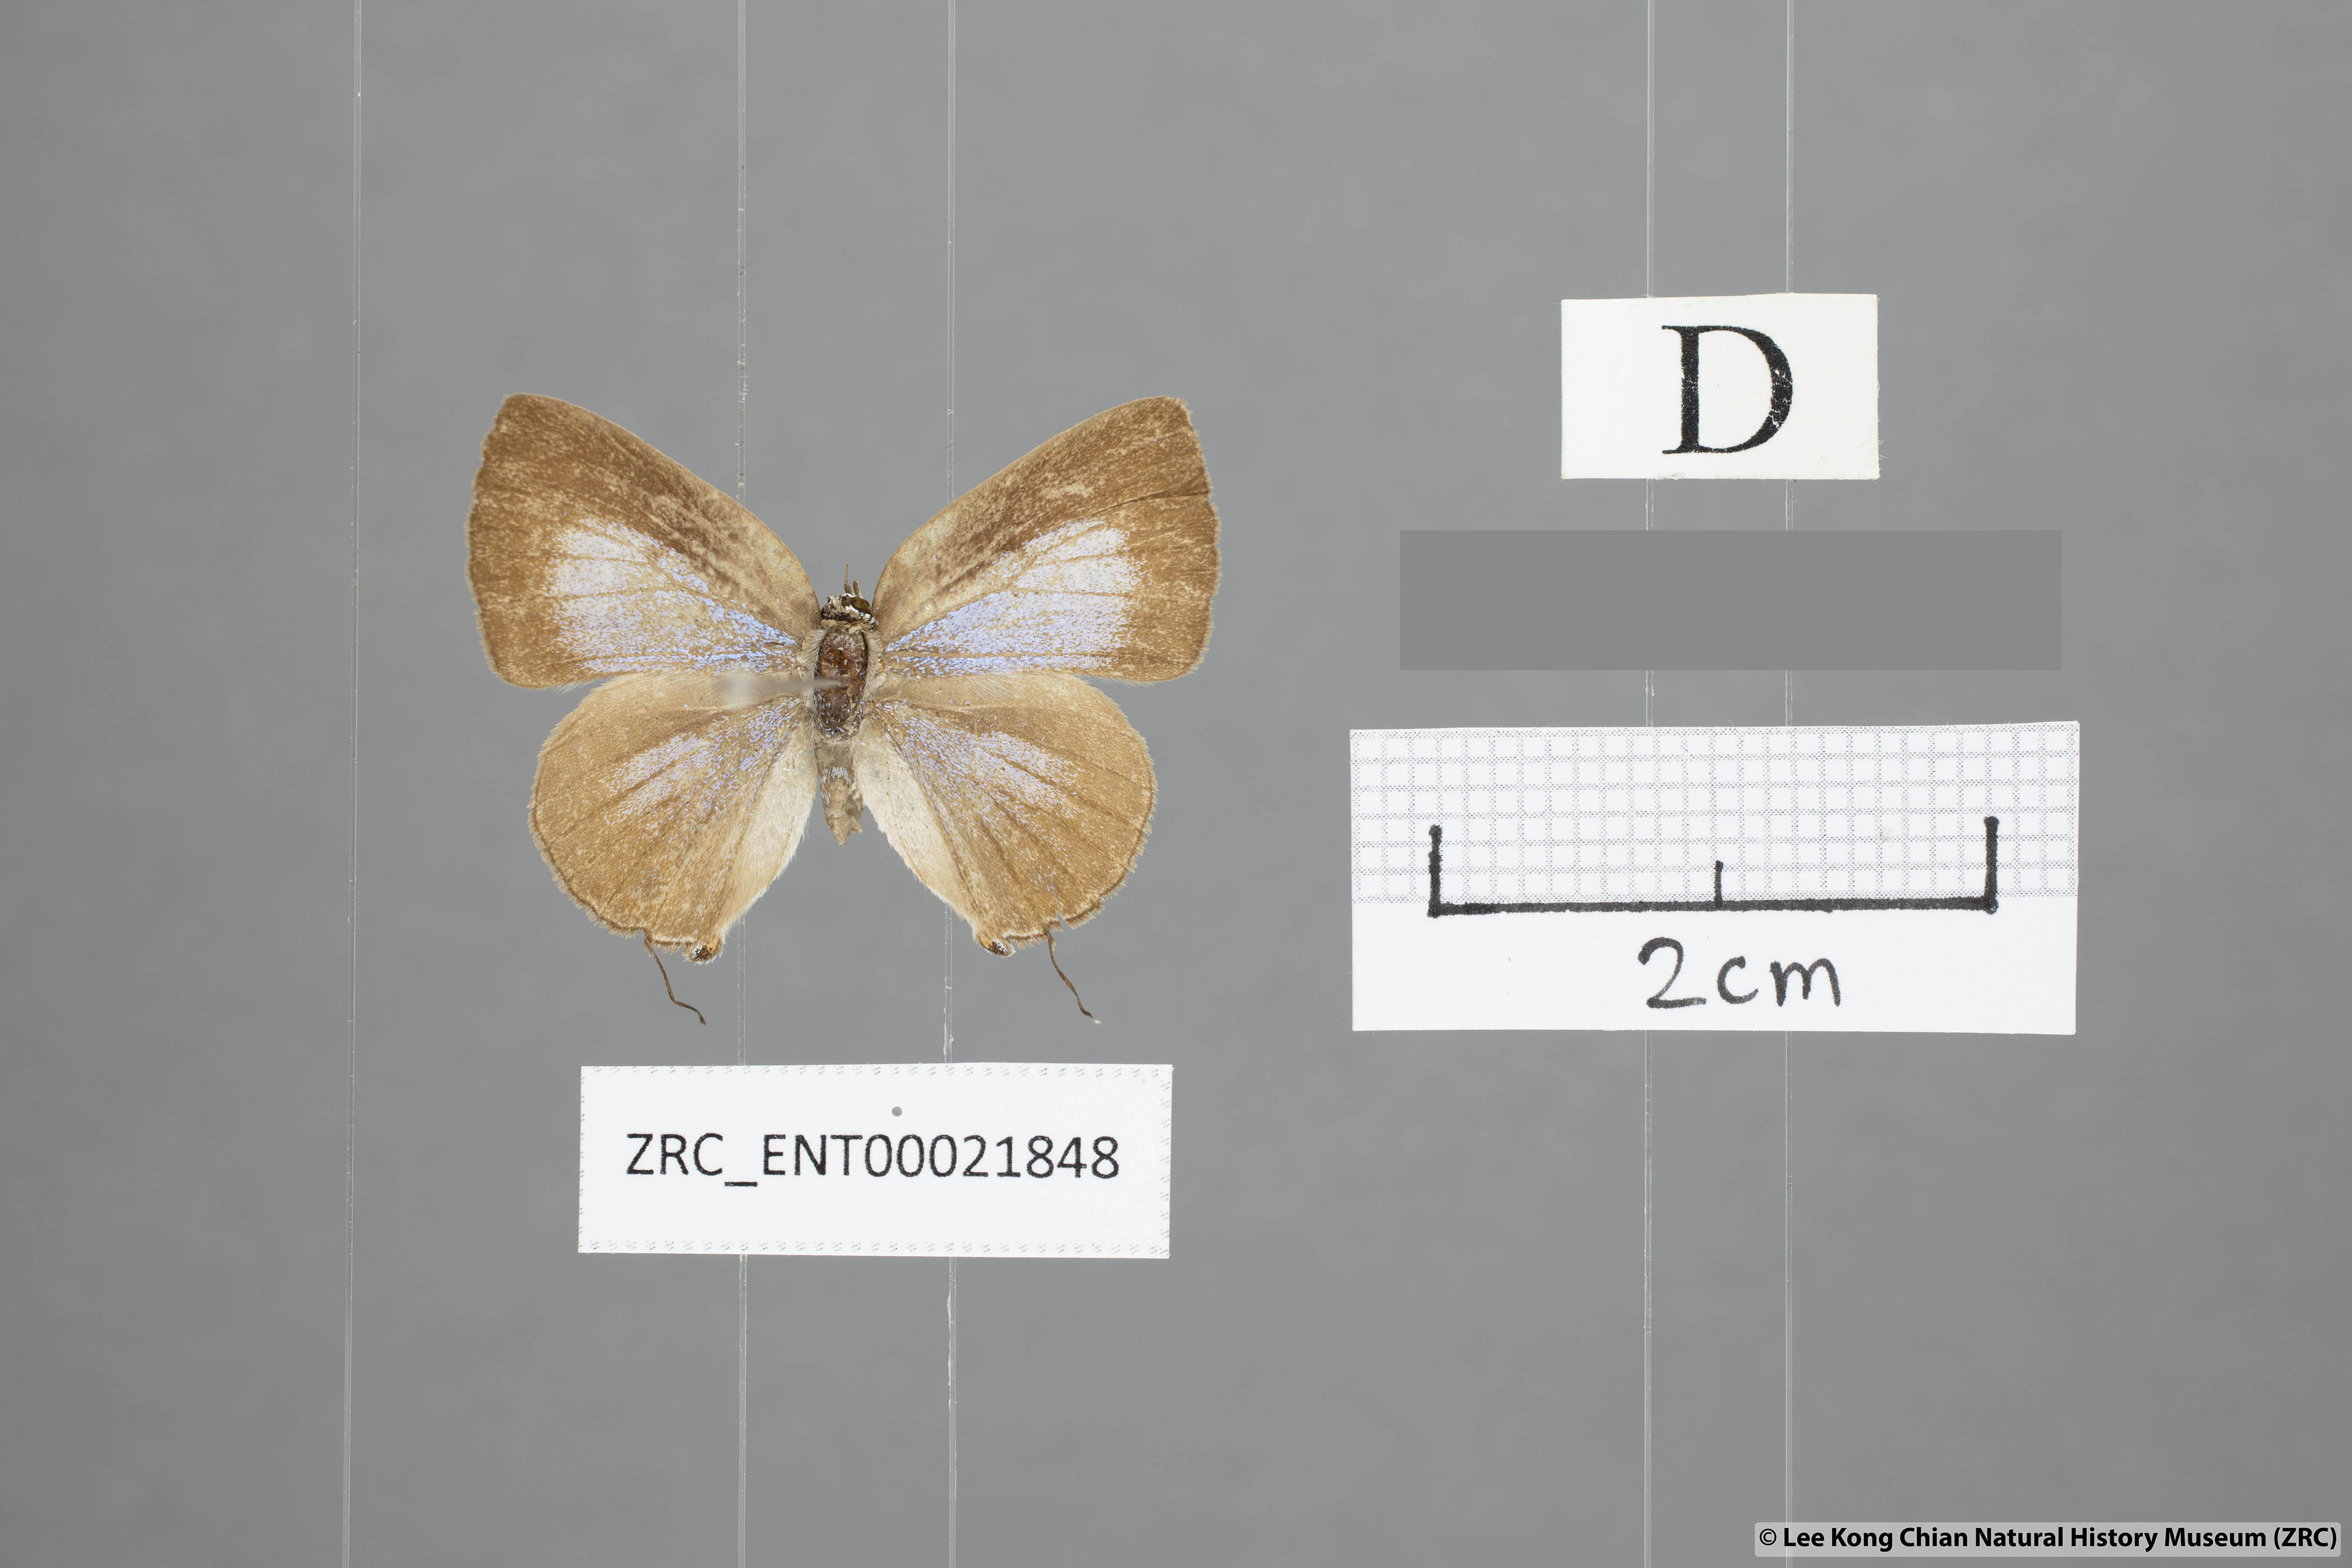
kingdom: Animalia
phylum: Arthropoda
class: Insecta
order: Lepidoptera
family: Lycaenidae
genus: Deudorix
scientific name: Deudorix kessuma
